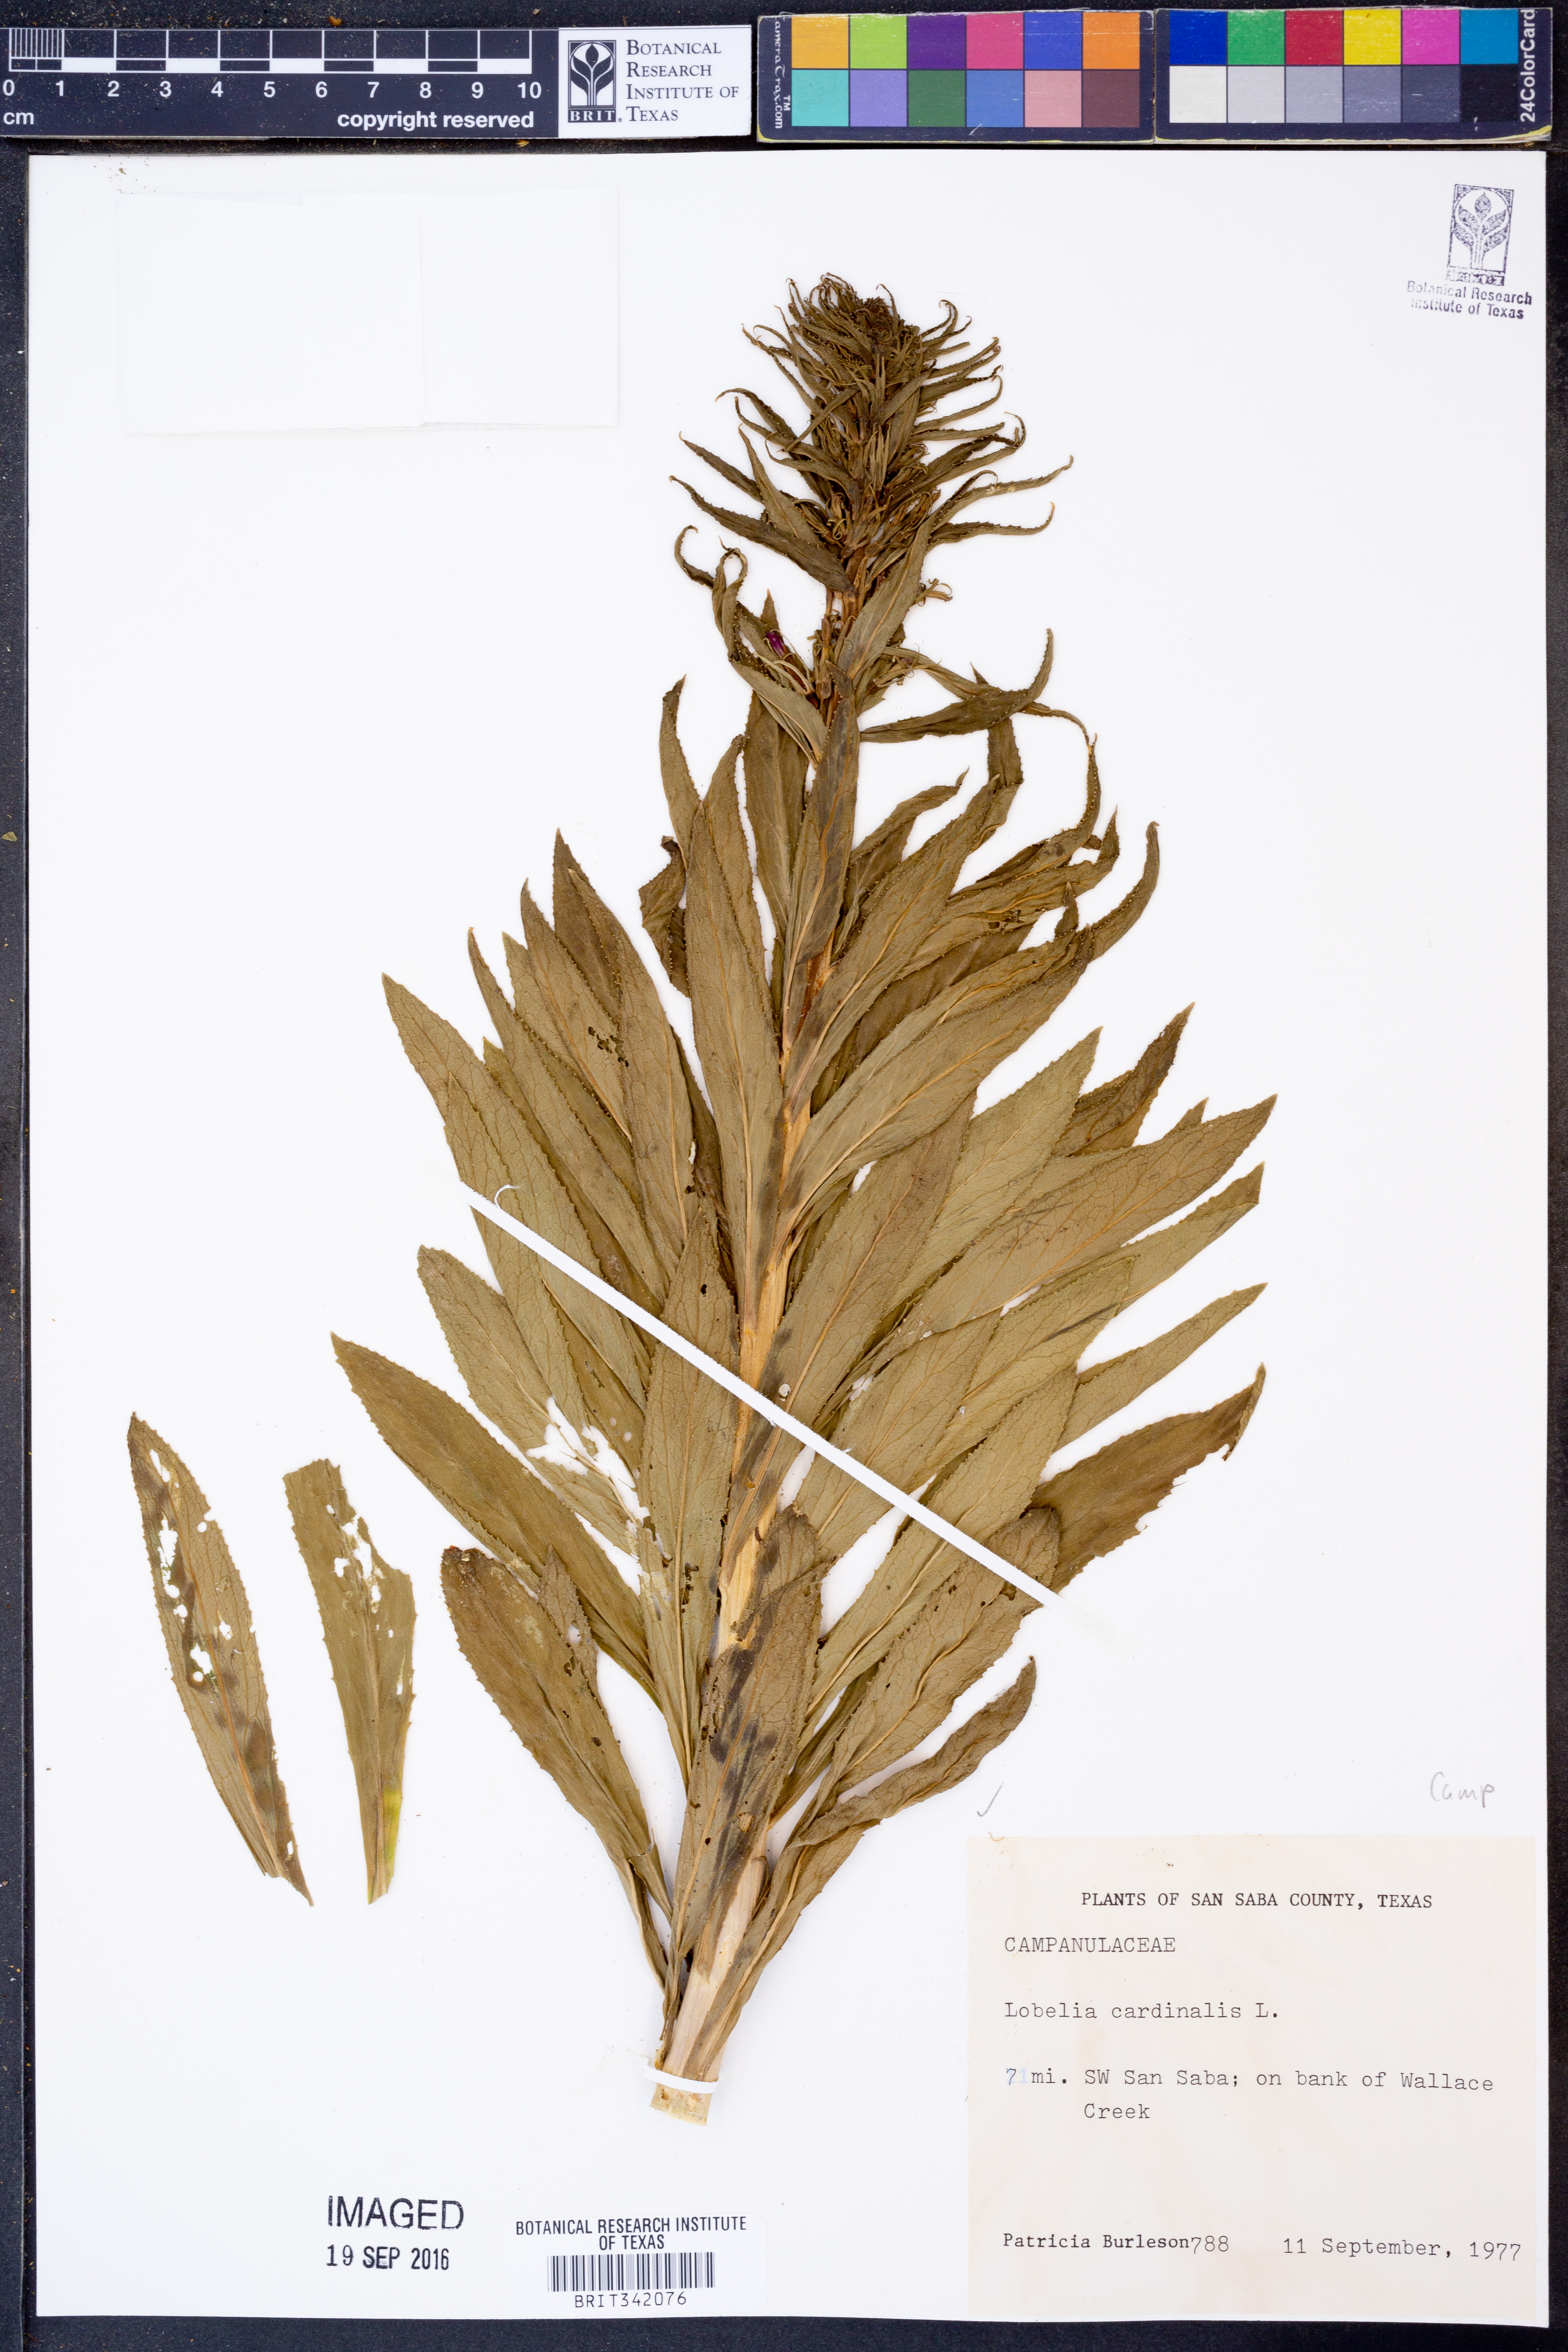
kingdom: Plantae
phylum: Tracheophyta
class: Magnoliopsida
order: Asterales
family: Campanulaceae
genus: Lobelia
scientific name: Lobelia cardinalis
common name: Cardinal flower
